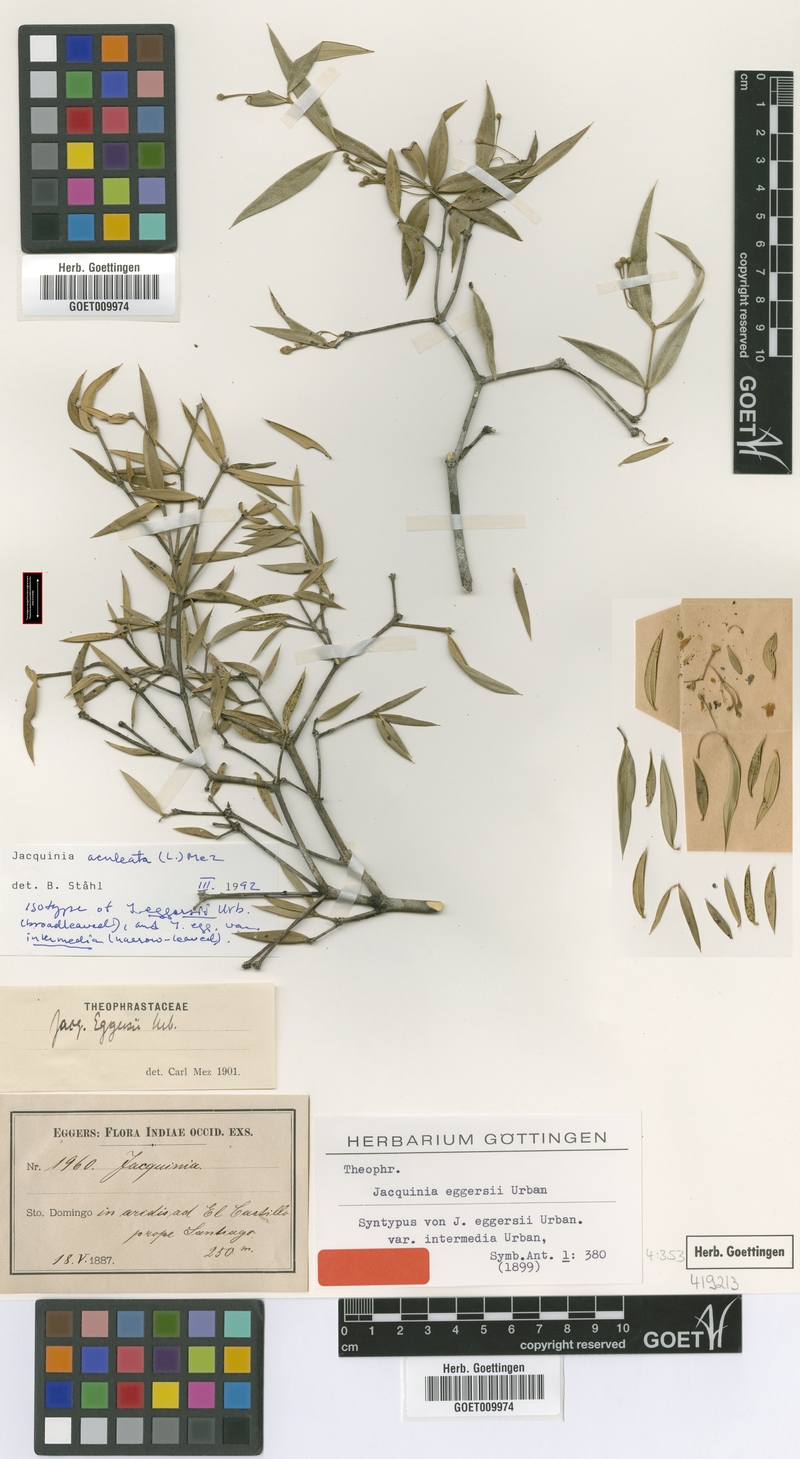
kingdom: Plantae
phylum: Tracheophyta
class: Magnoliopsida
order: Ericales
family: Primulaceae
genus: Jacquinia
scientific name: Jacquinia aculeata
